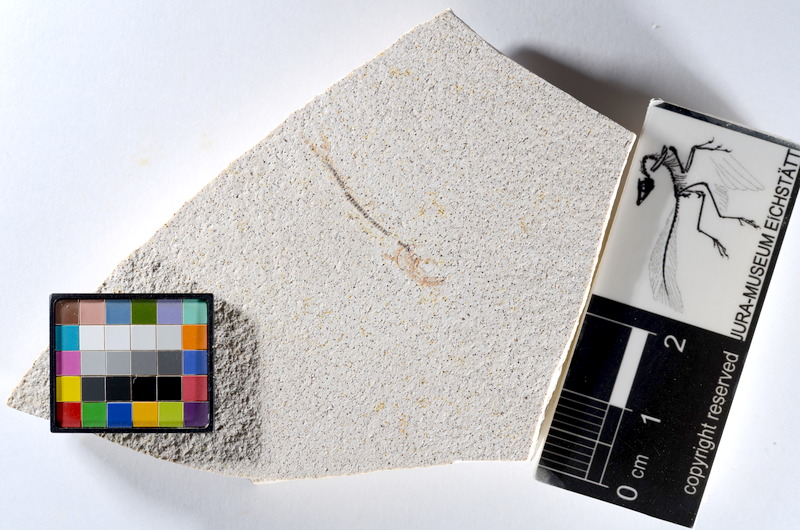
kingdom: Animalia
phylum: Chordata
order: Salmoniformes
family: Orthogonikleithridae
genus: Orthogonikleithrus
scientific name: Orthogonikleithrus hoelli
